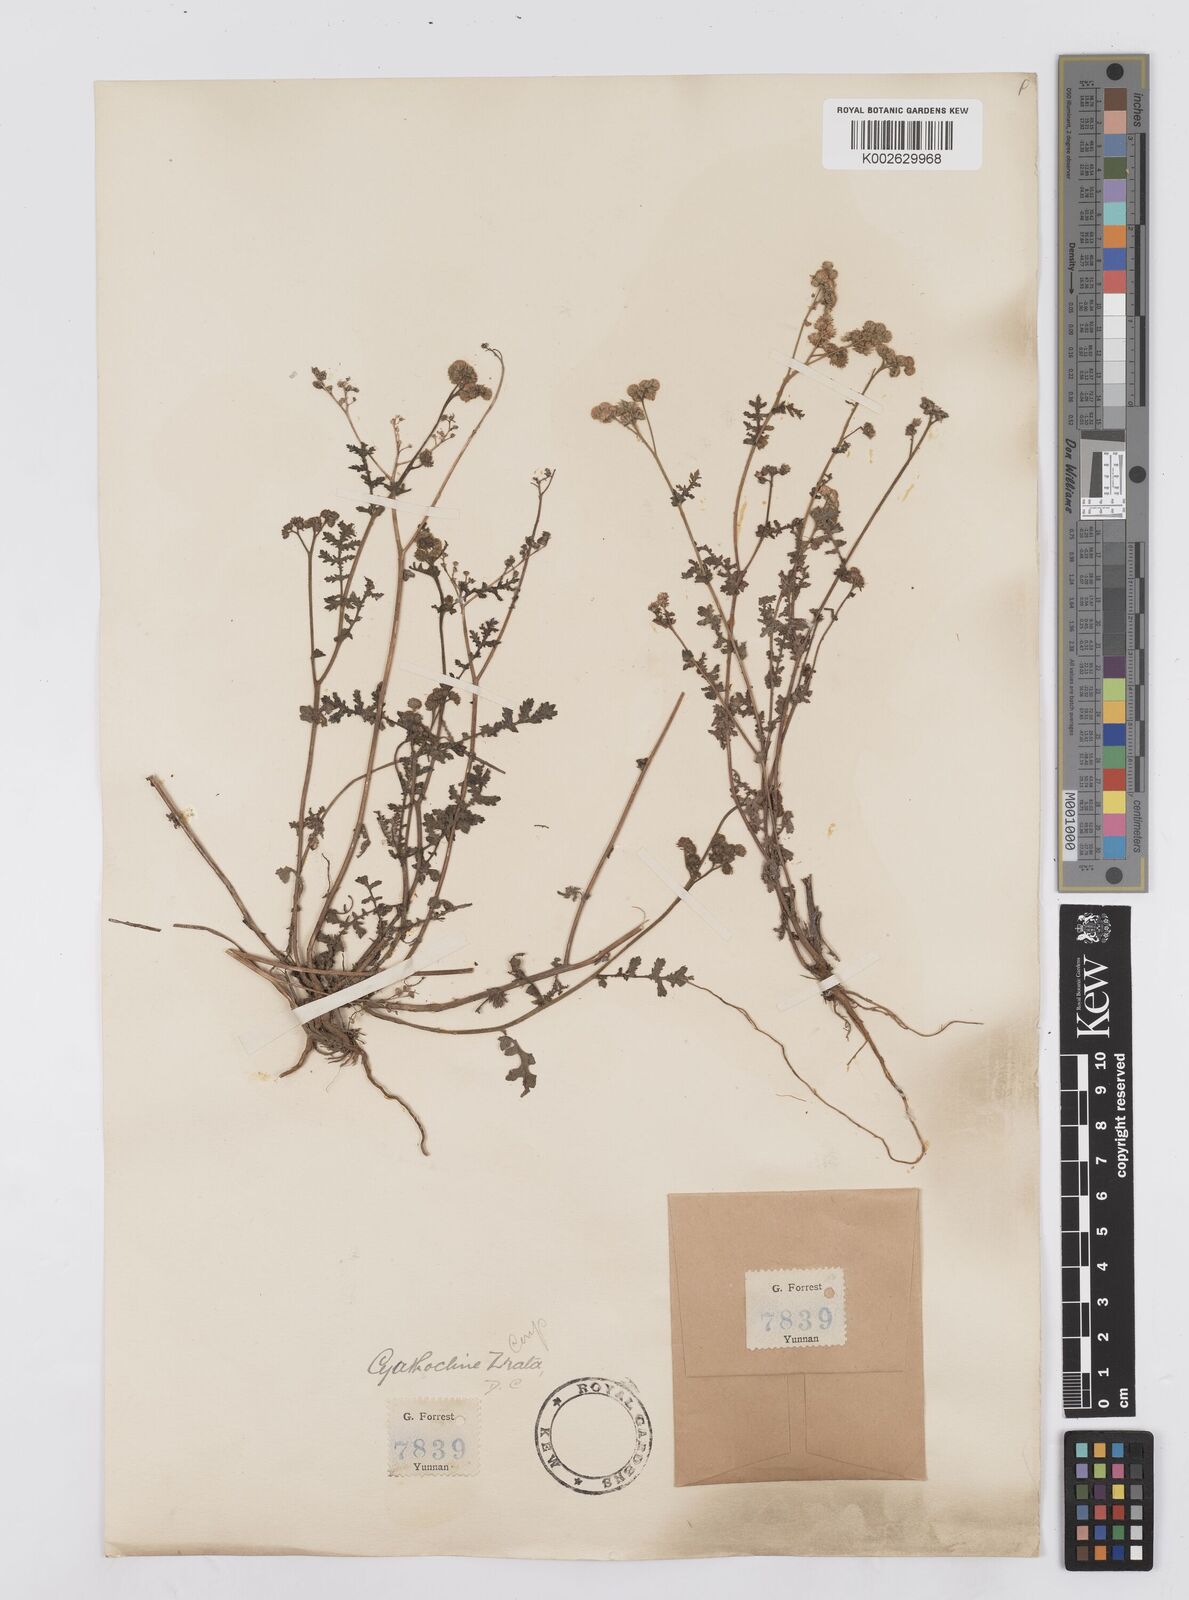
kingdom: Plantae
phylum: Tracheophyta
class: Magnoliopsida
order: Asterales
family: Asteraceae
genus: Cyathocline
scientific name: Cyathocline purpurea
